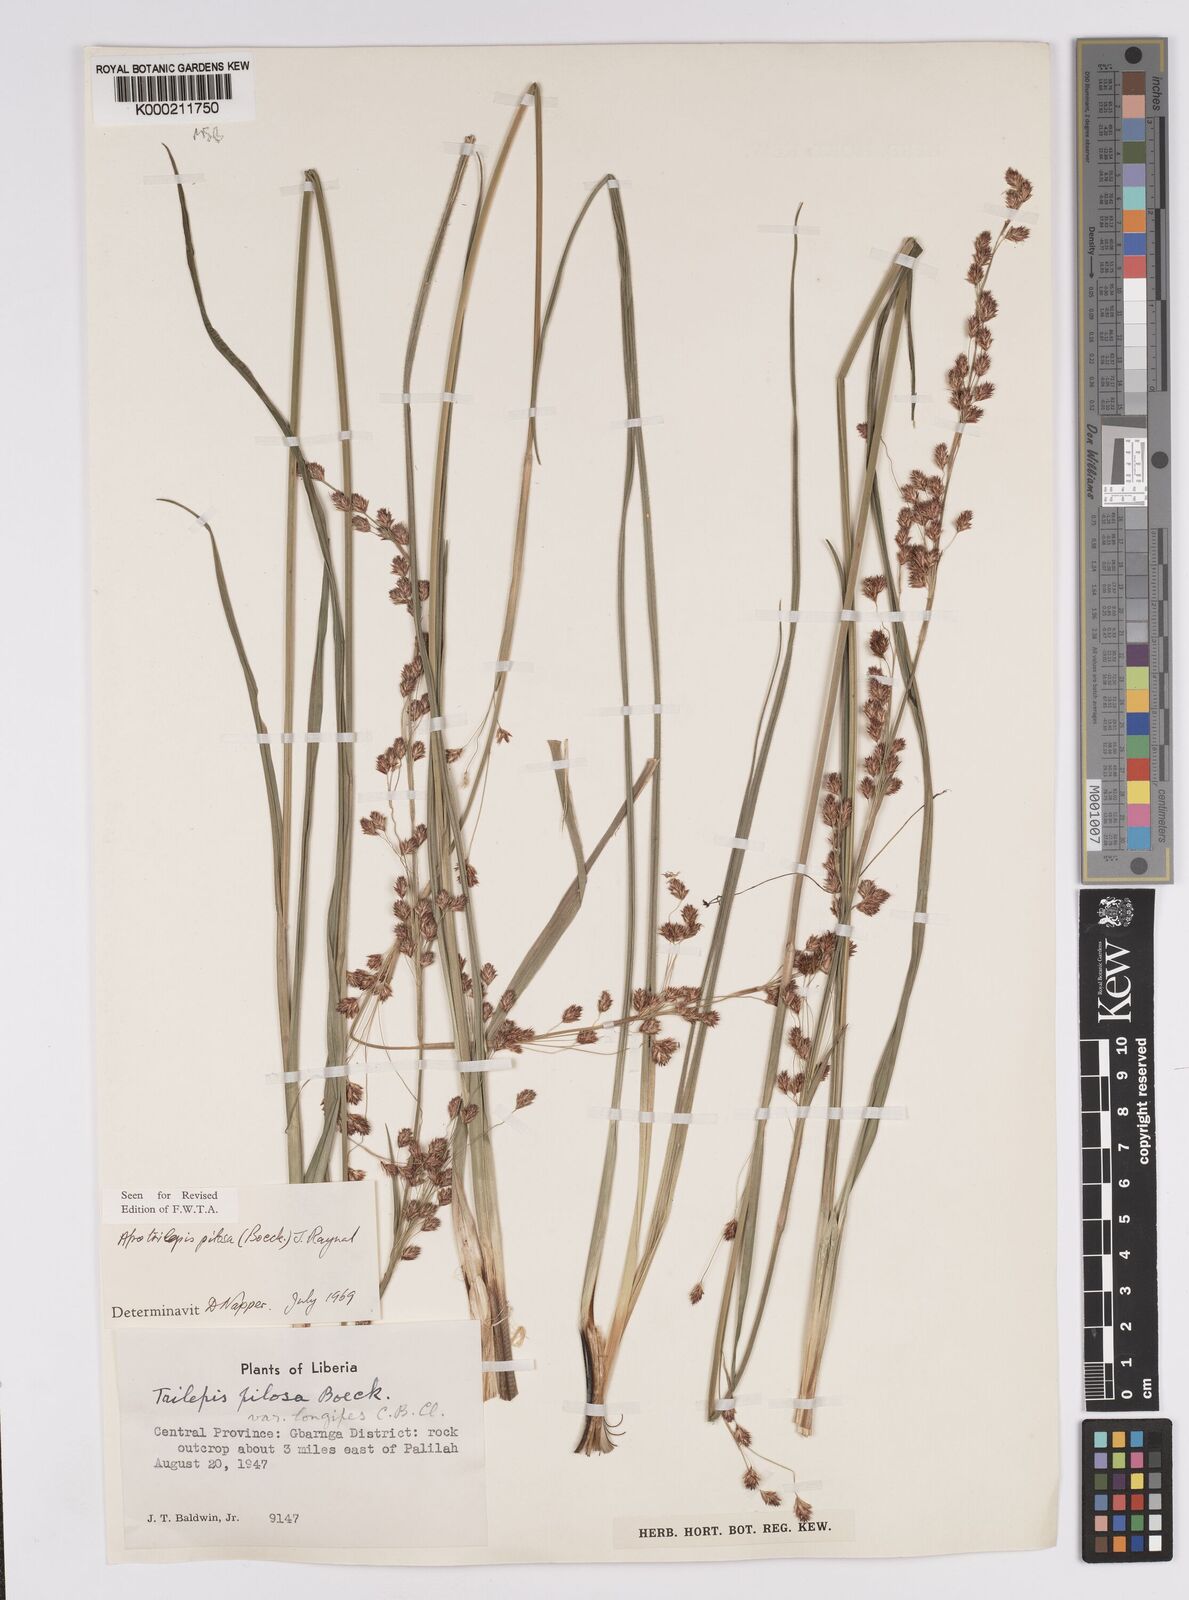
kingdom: Plantae
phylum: Tracheophyta
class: Liliopsida
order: Poales
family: Cyperaceae
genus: Afrotrilepis
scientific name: Afrotrilepis pilosa
